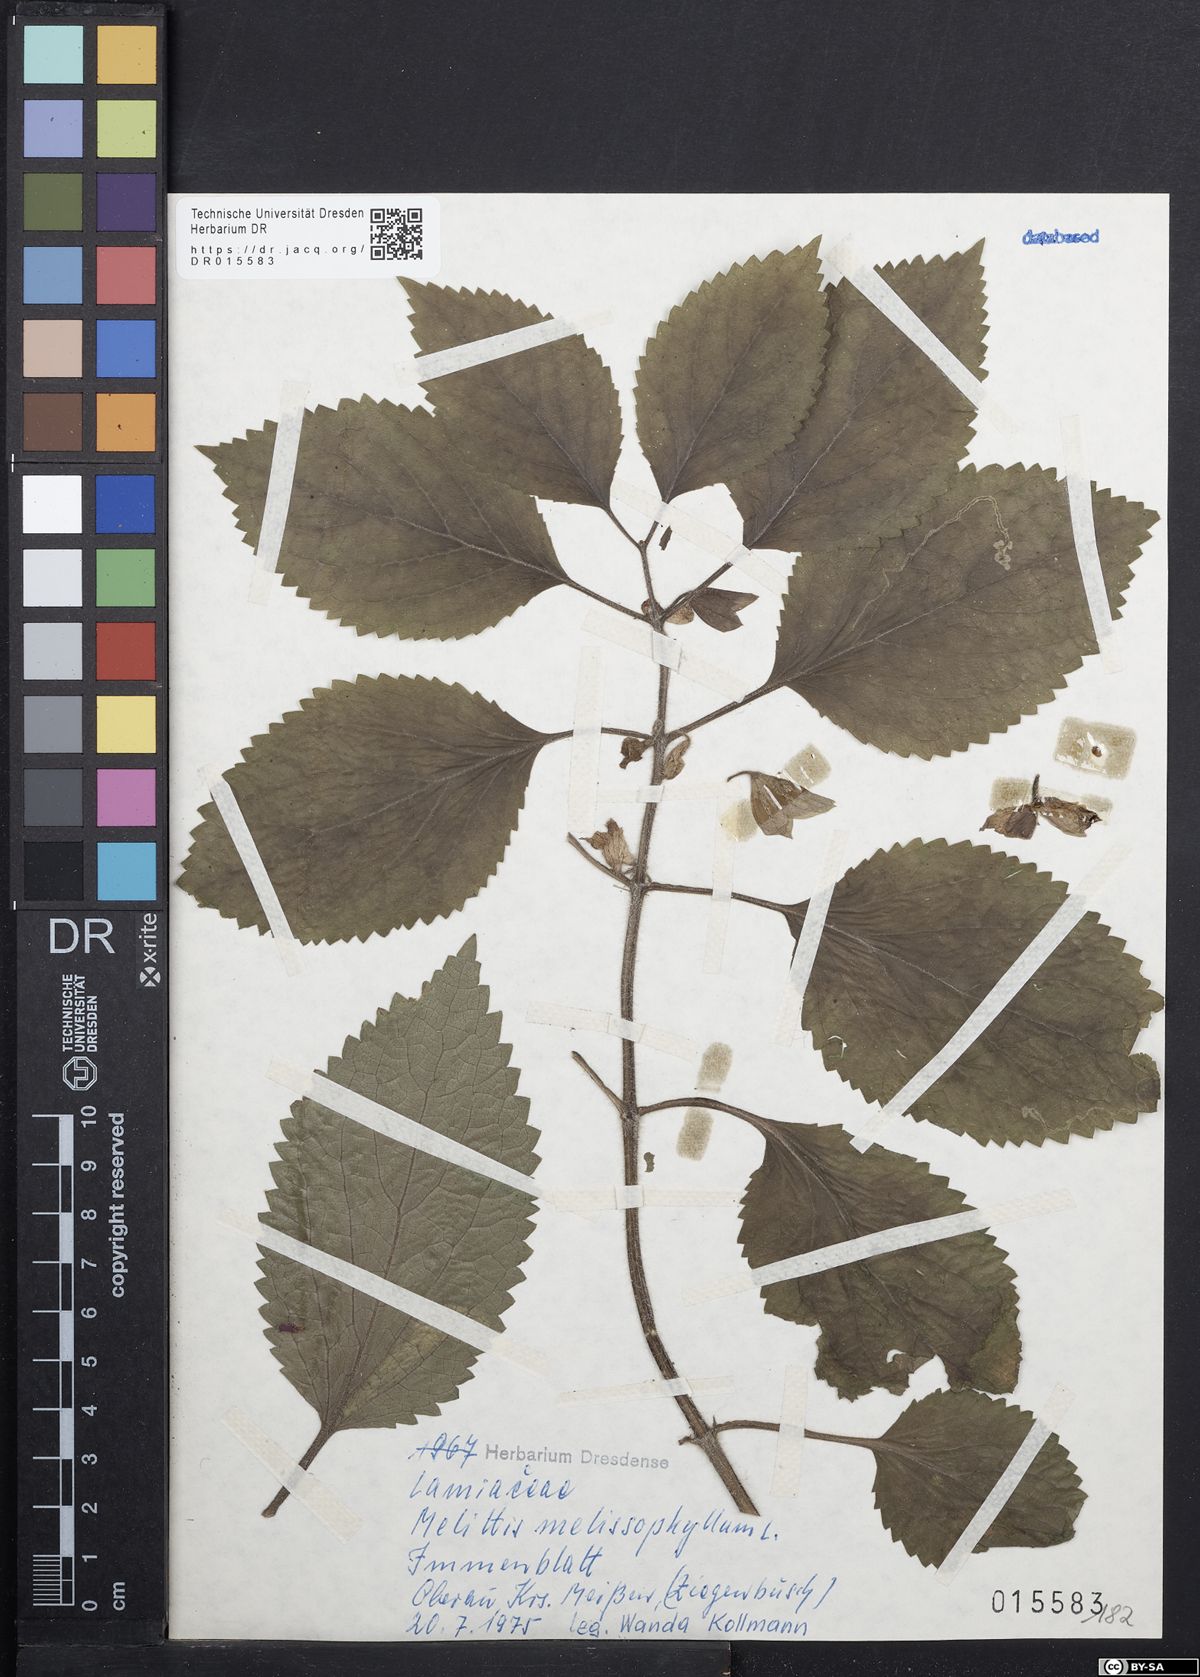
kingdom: Plantae
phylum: Tracheophyta
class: Magnoliopsida
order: Lamiales
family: Lamiaceae
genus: Melittis
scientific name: Melittis melissophyllum
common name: Bastard balm
